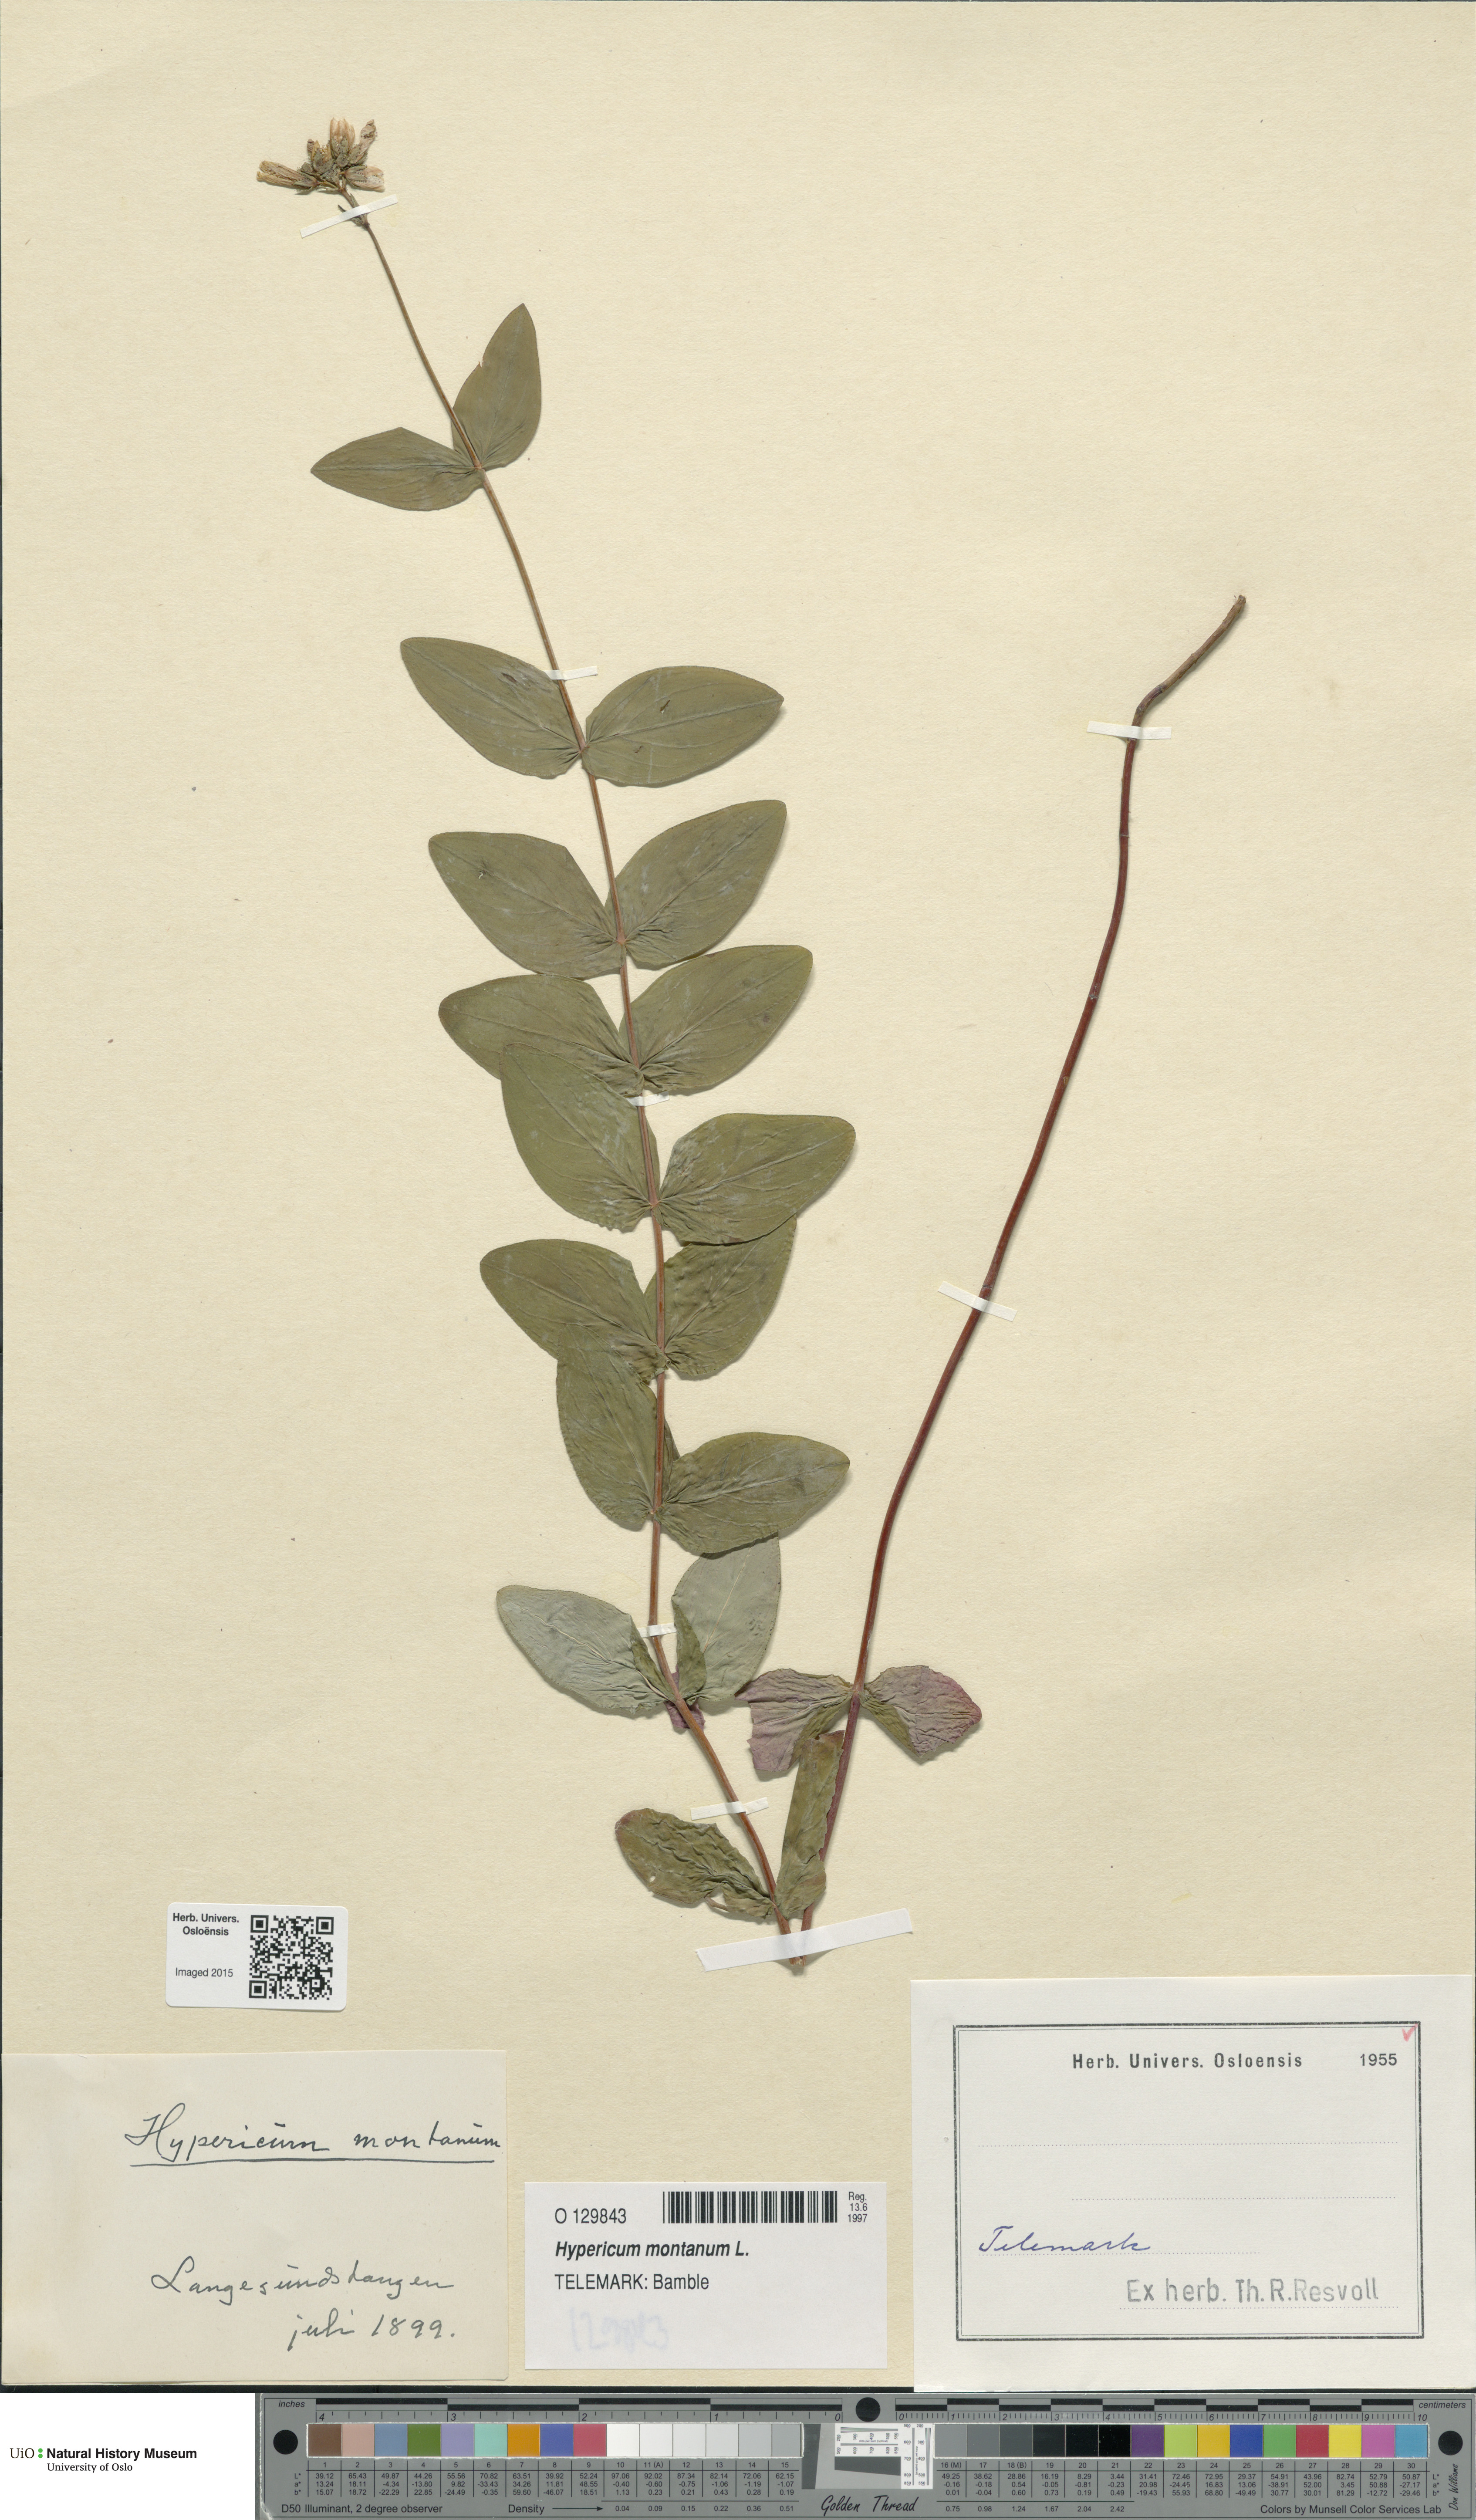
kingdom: Plantae
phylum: Tracheophyta
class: Magnoliopsida
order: Malpighiales
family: Hypericaceae
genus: Hypericum
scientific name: Hypericum montanum
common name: Pale st. john's-wort
